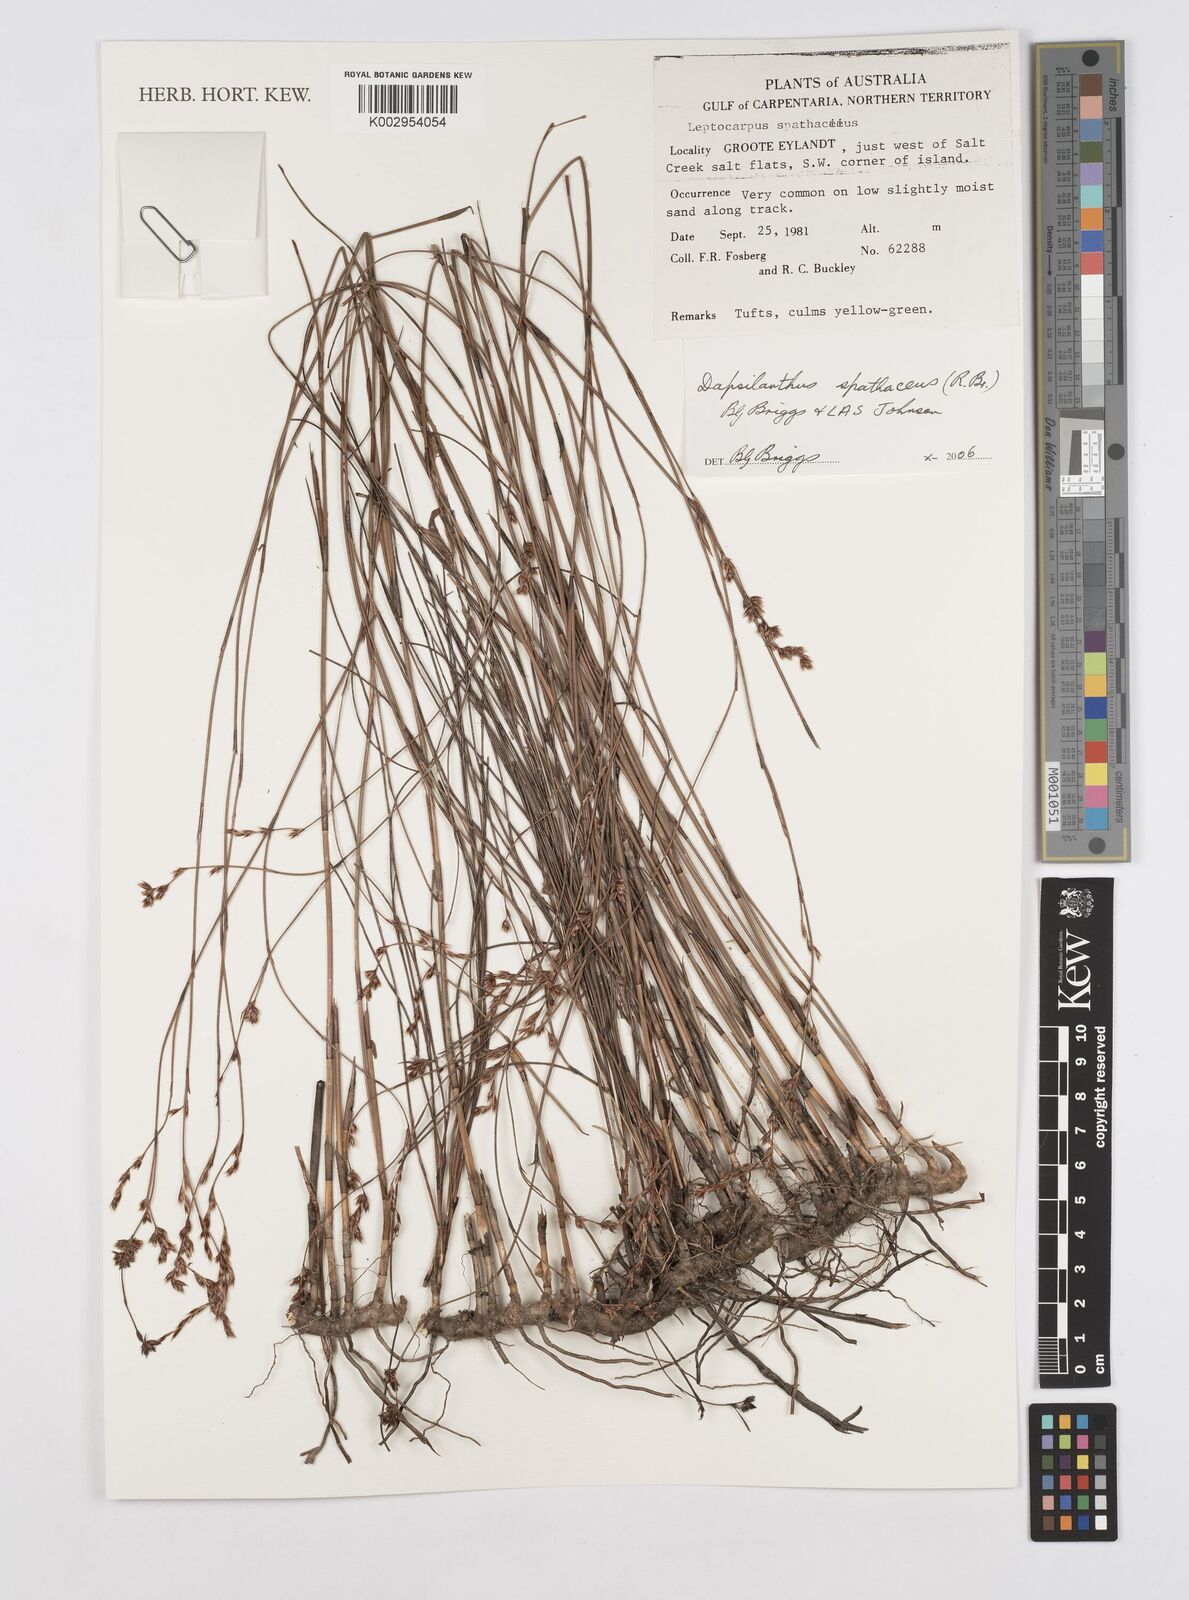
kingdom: Plantae
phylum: Tracheophyta
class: Liliopsida
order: Poales
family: Restionaceae
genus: Dapsilanthus
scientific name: Dapsilanthus spathaceus
